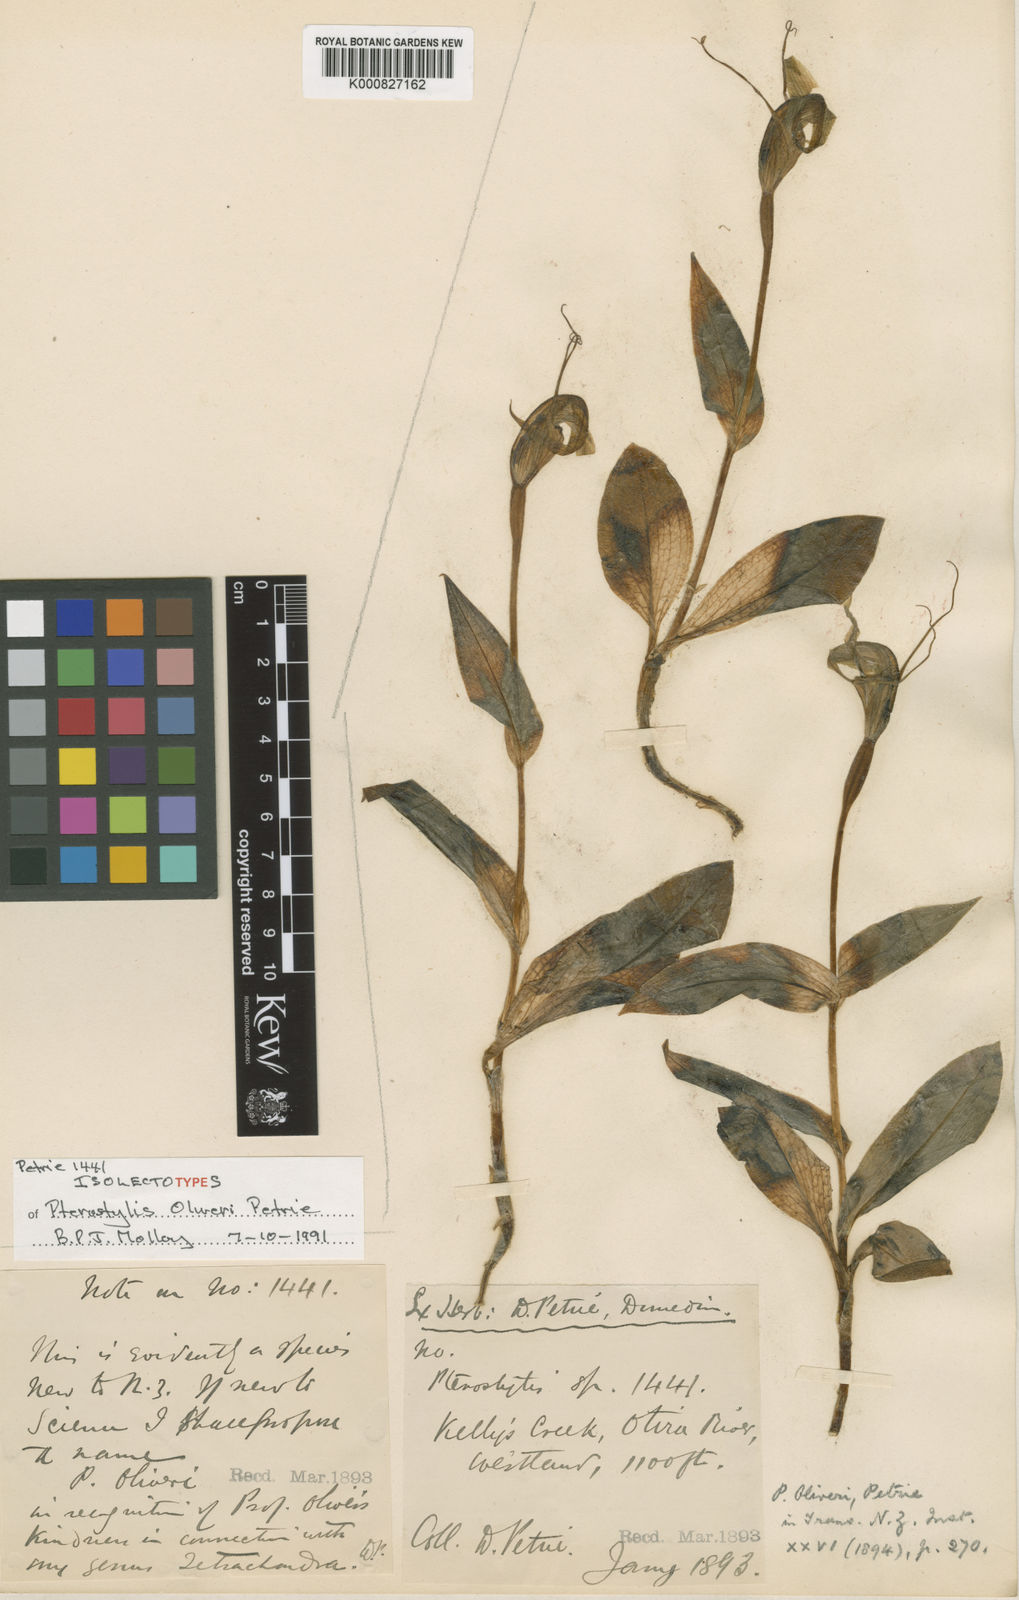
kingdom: Plantae
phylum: Tracheophyta
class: Liliopsida
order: Asparagales
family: Orchidaceae
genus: Pterostylis
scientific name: Pterostylis oliveri
